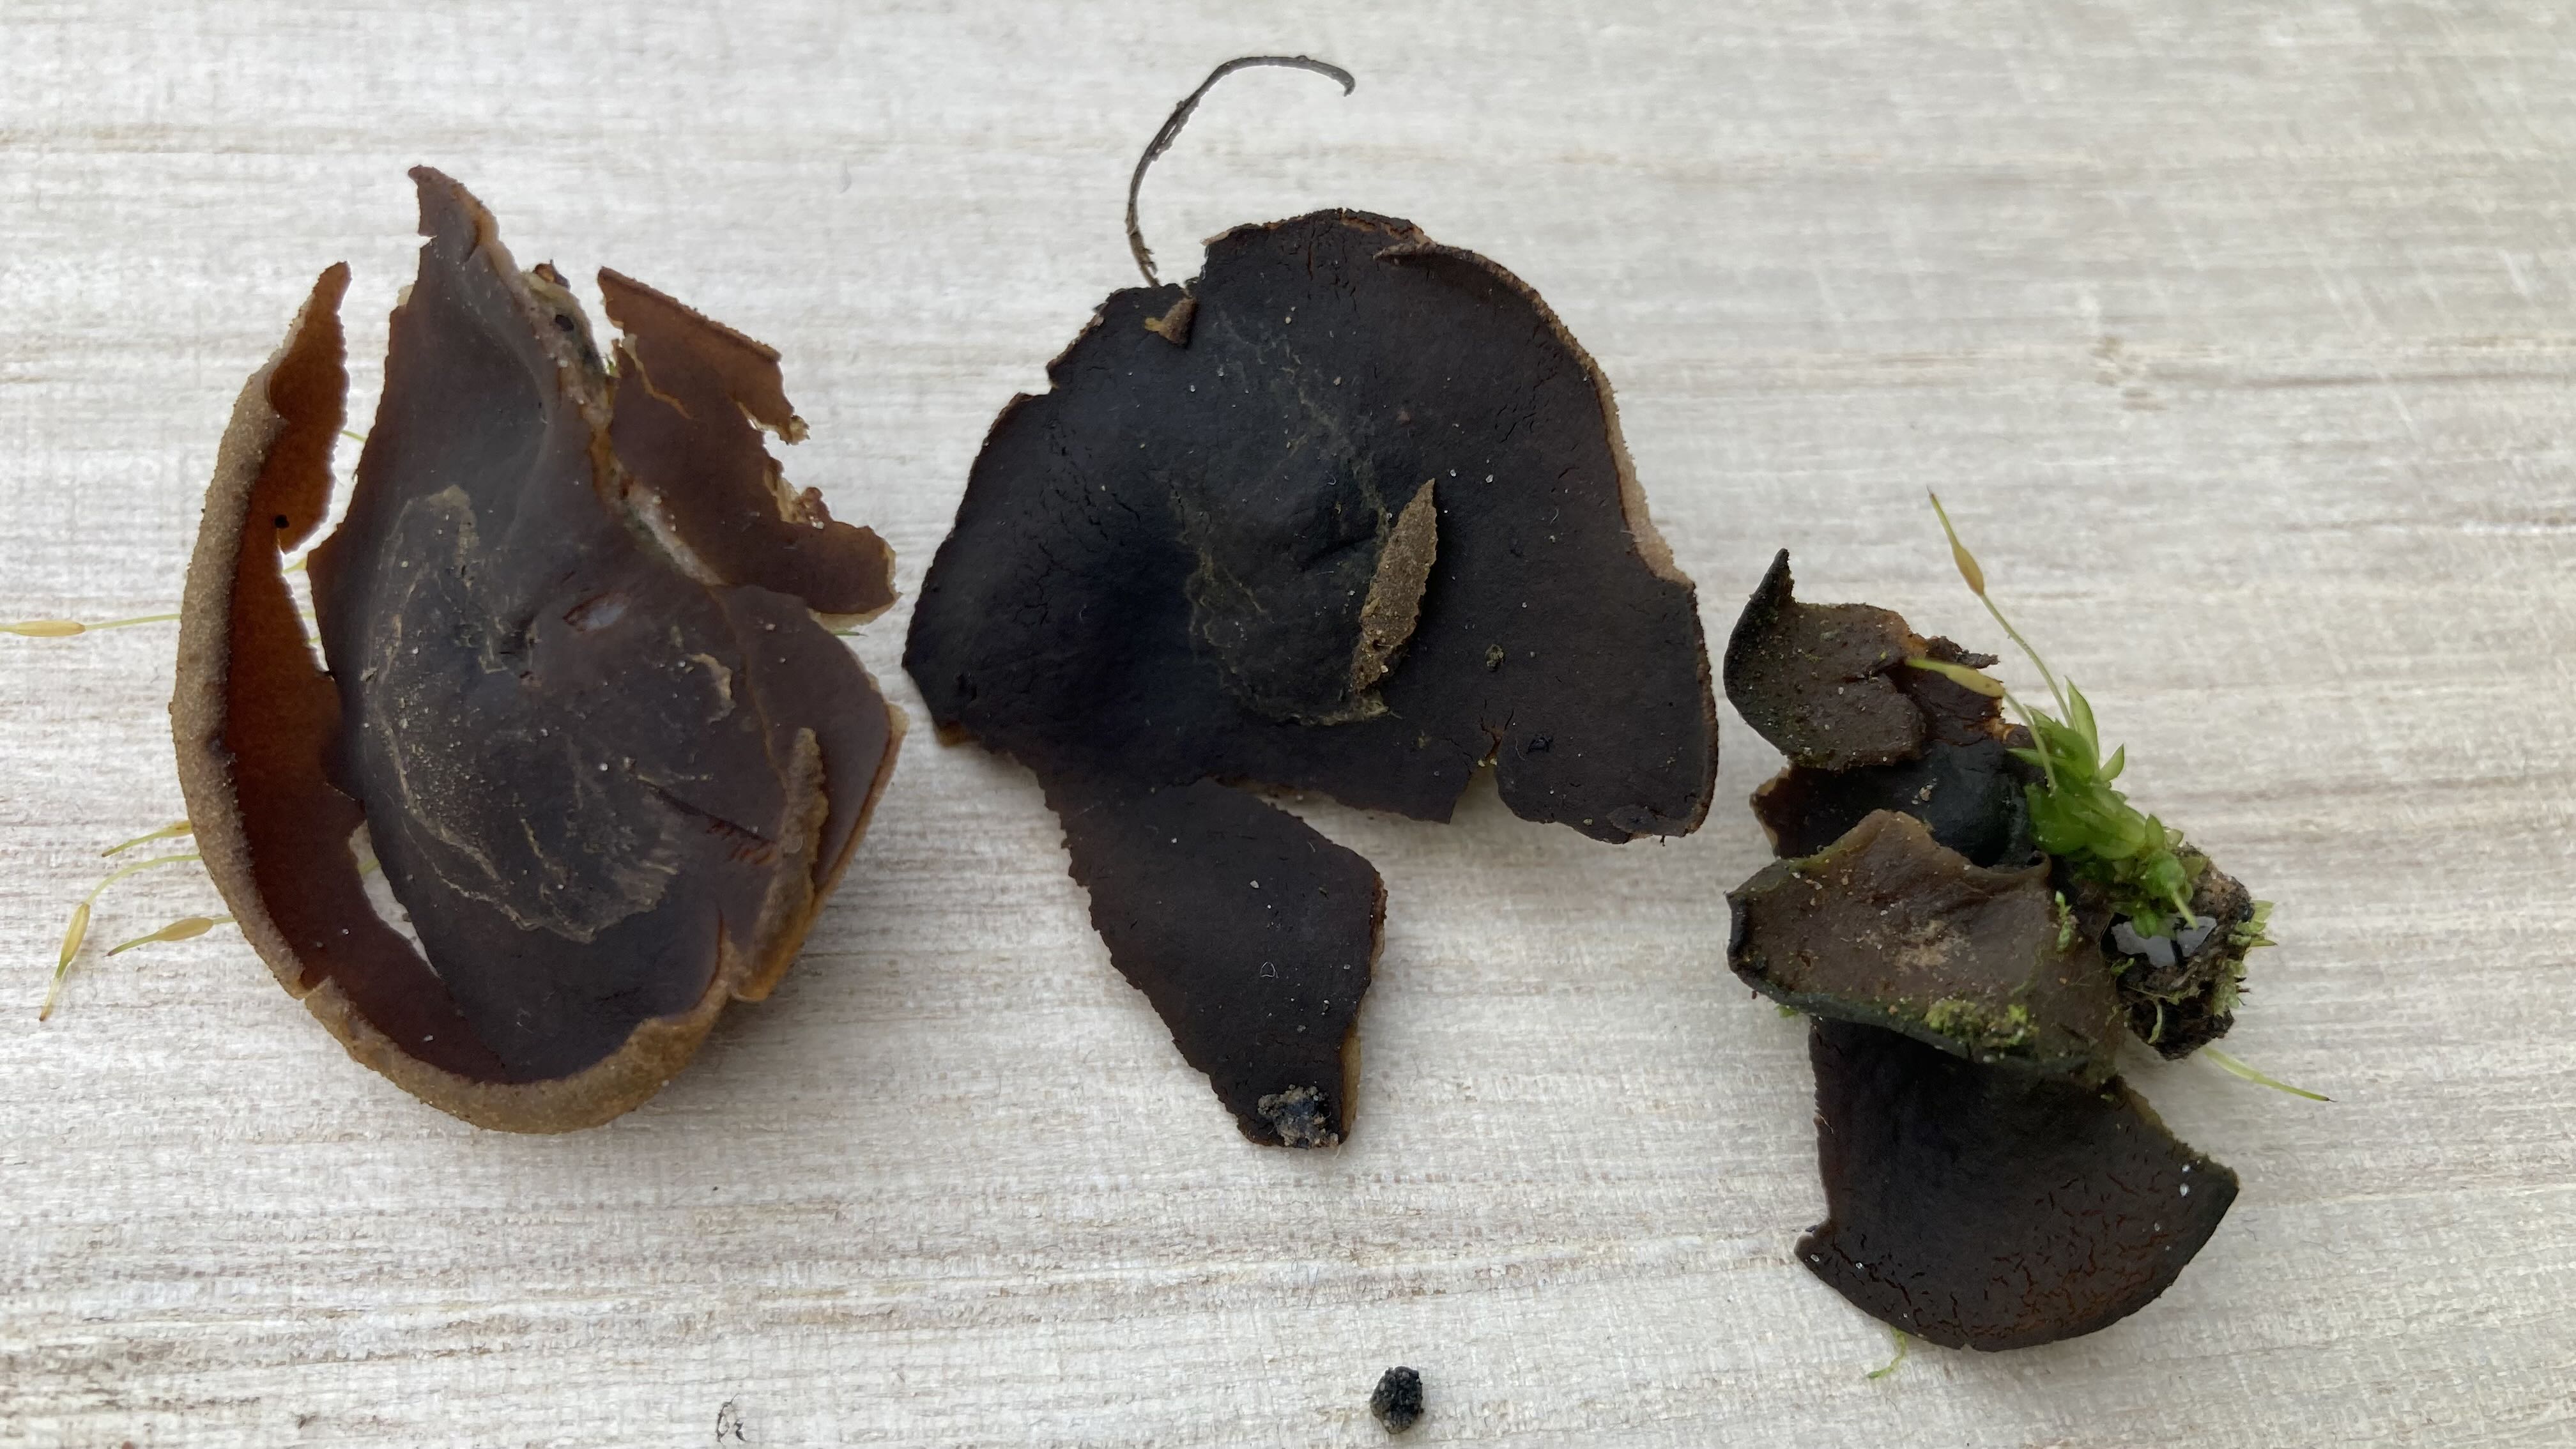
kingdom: Fungi
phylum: Ascomycota
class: Pezizomycetes
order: Pezizales
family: Pyronemataceae
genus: Plicaria
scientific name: Plicaria endocarpoides
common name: glatsporet bålbæger
